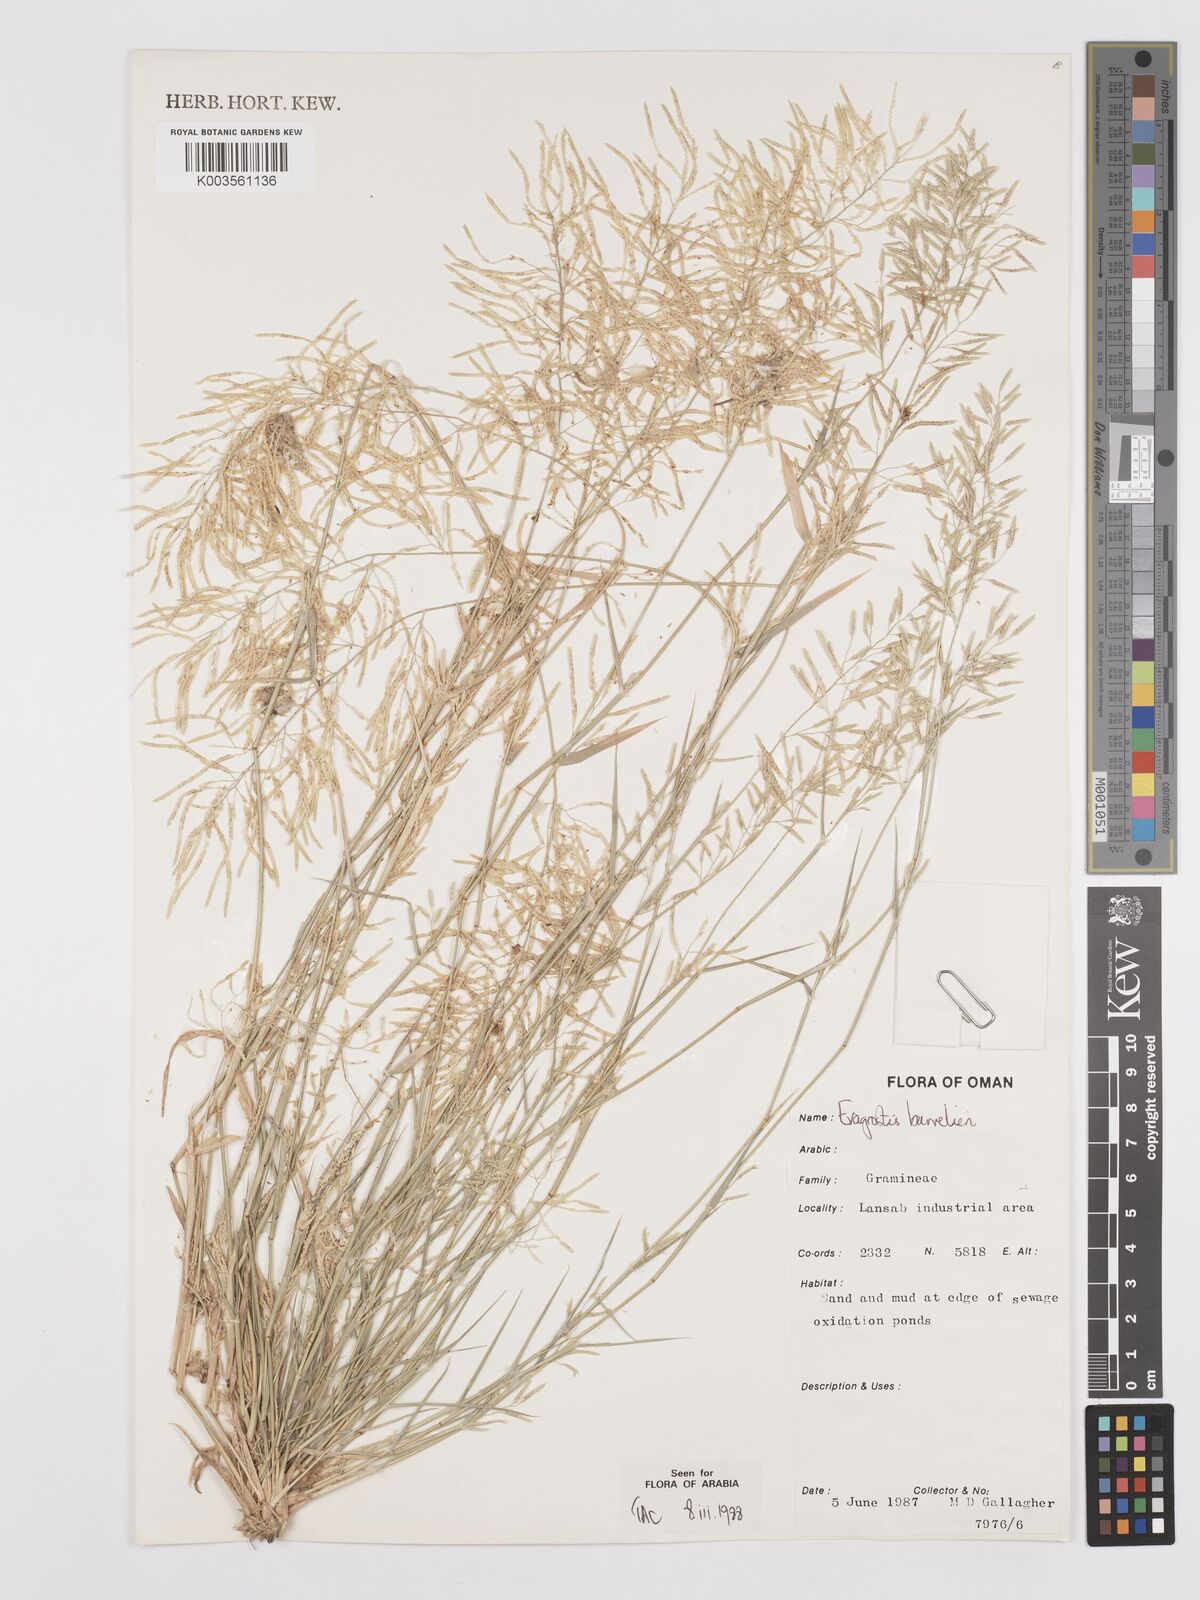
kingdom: Plantae
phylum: Tracheophyta
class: Liliopsida
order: Poales
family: Poaceae
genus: Eragrostis
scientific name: Eragrostis barrelieri
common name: Mediterranean lovegrass
